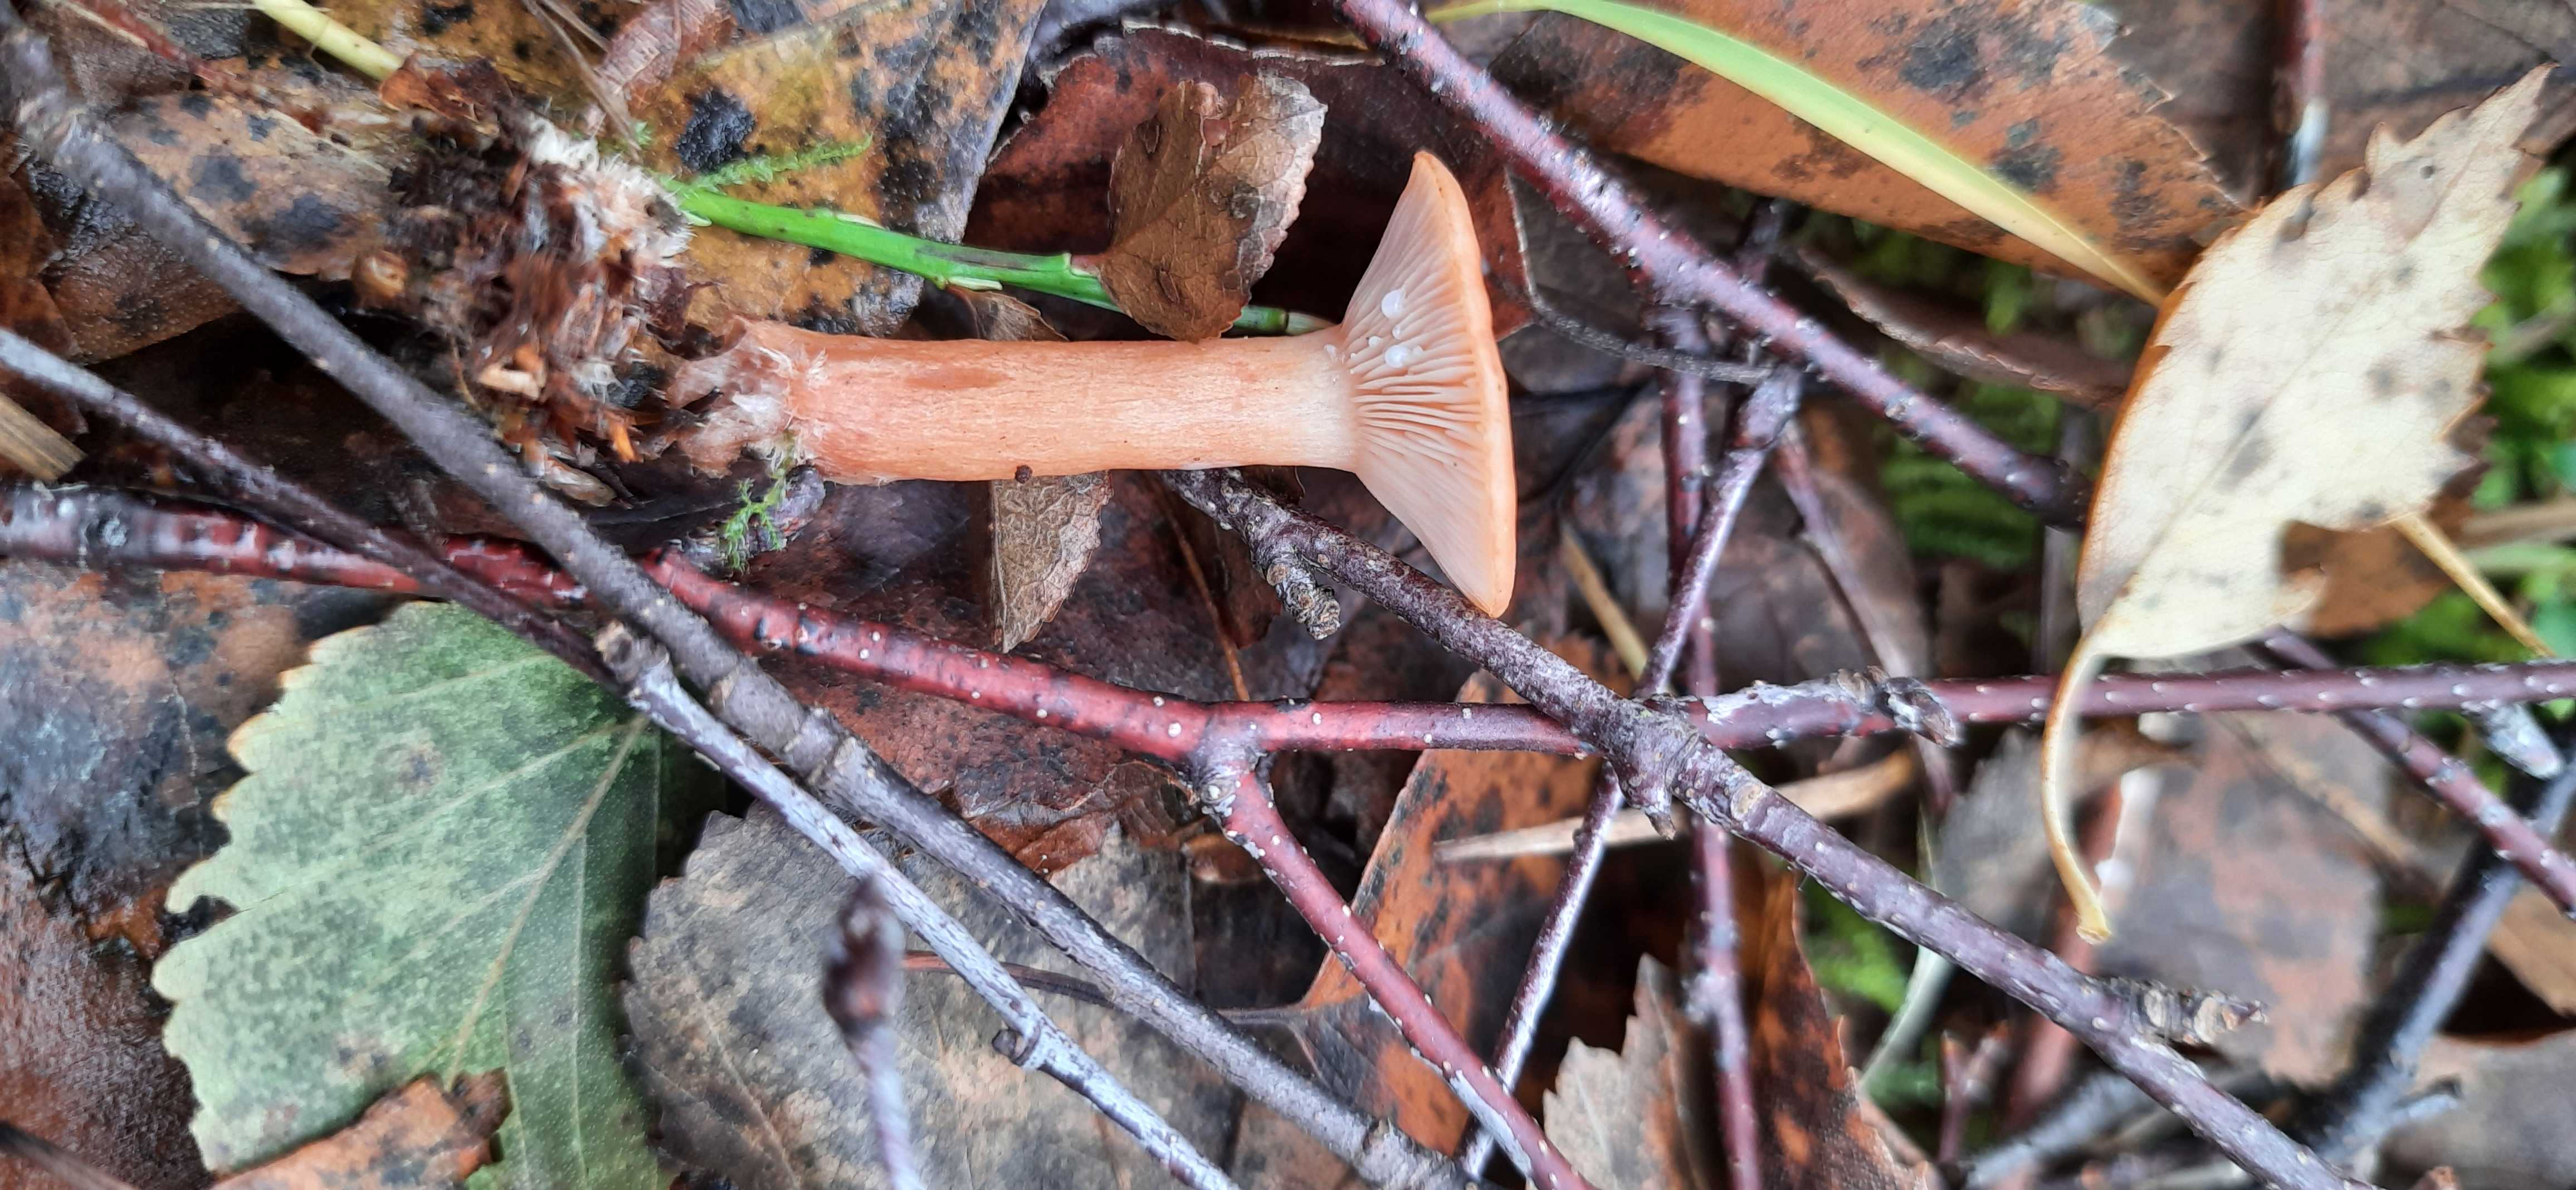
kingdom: Fungi
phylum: Basidiomycota
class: Agaricomycetes
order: Russulales
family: Russulaceae
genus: Lactarius
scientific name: Lactarius tabidus
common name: rynket mælkehat
